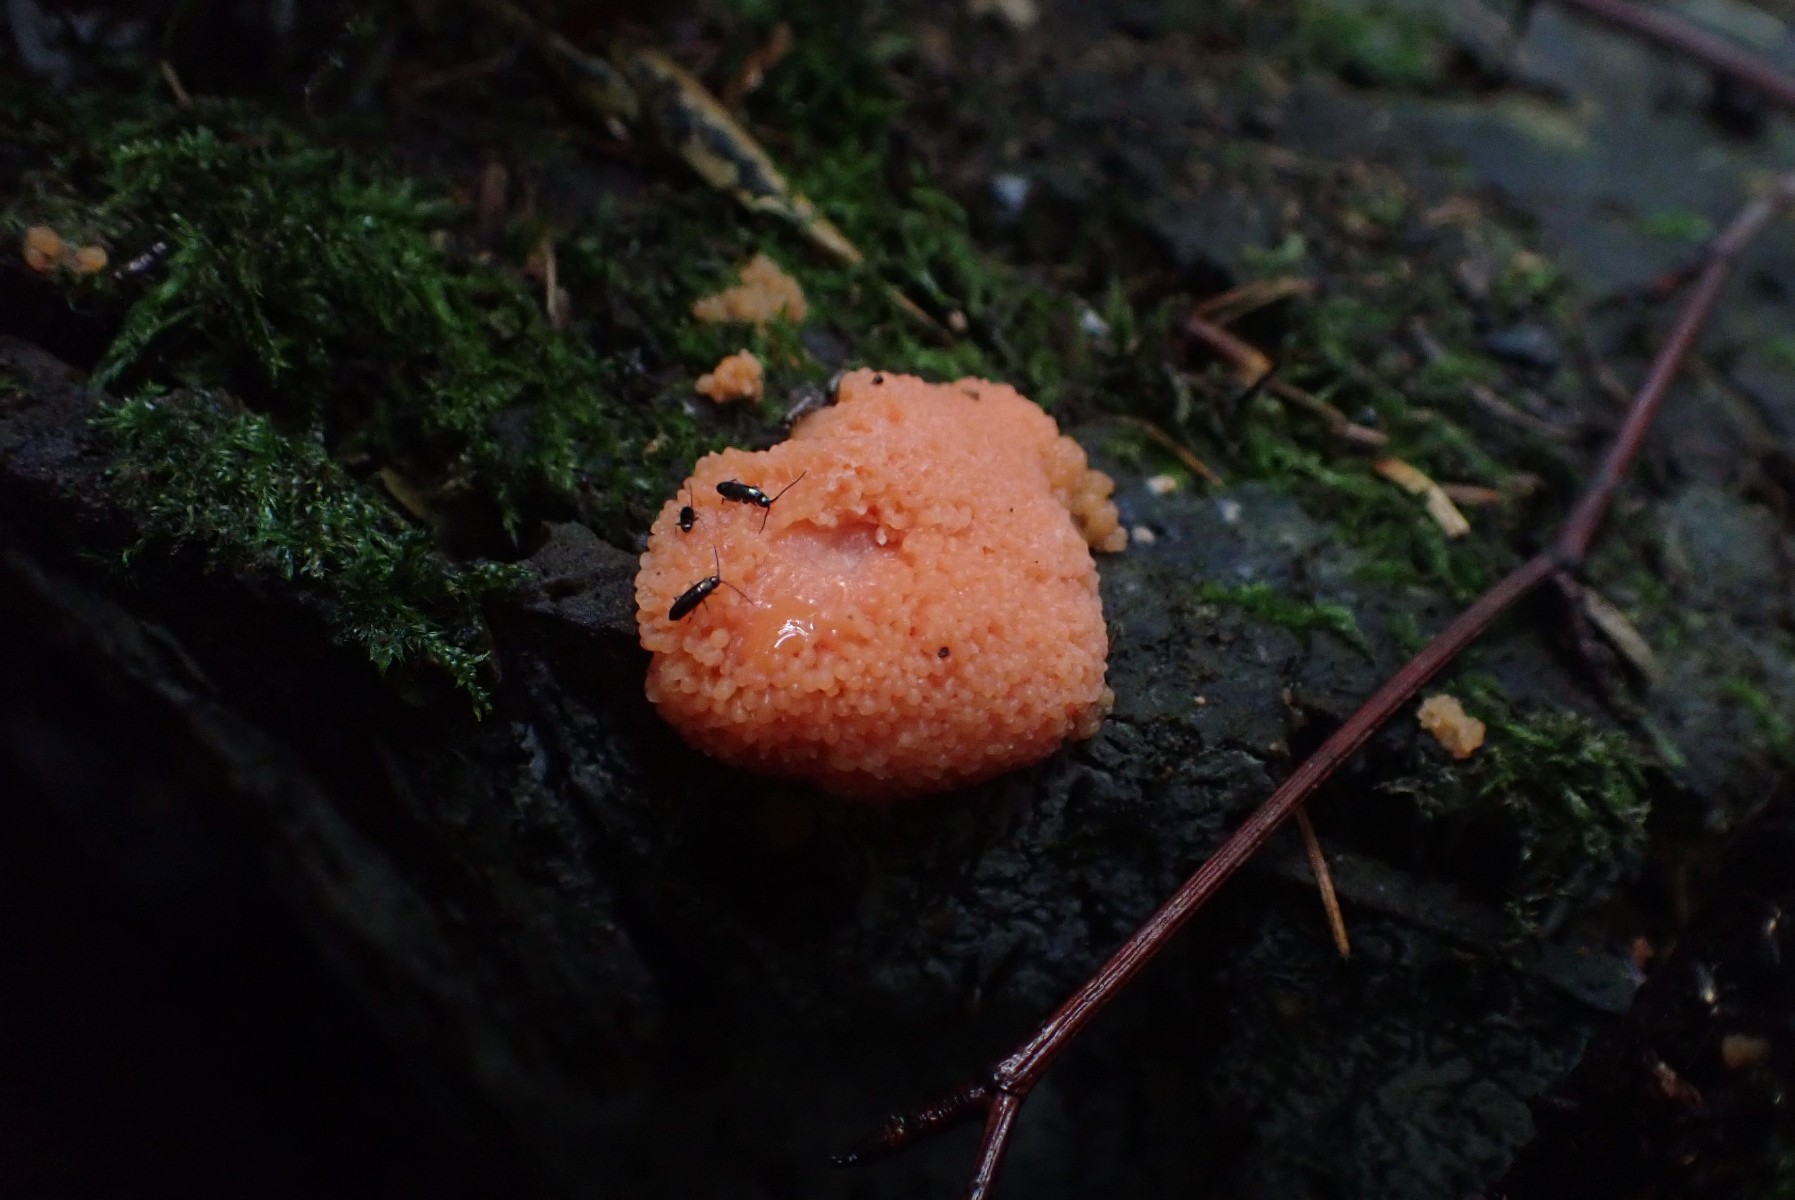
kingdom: Protozoa
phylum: Mycetozoa
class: Myxomycetes
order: Cribrariales
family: Tubiferaceae
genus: Tubifera
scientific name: Tubifera ferruginosa
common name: kanel-støvrør
